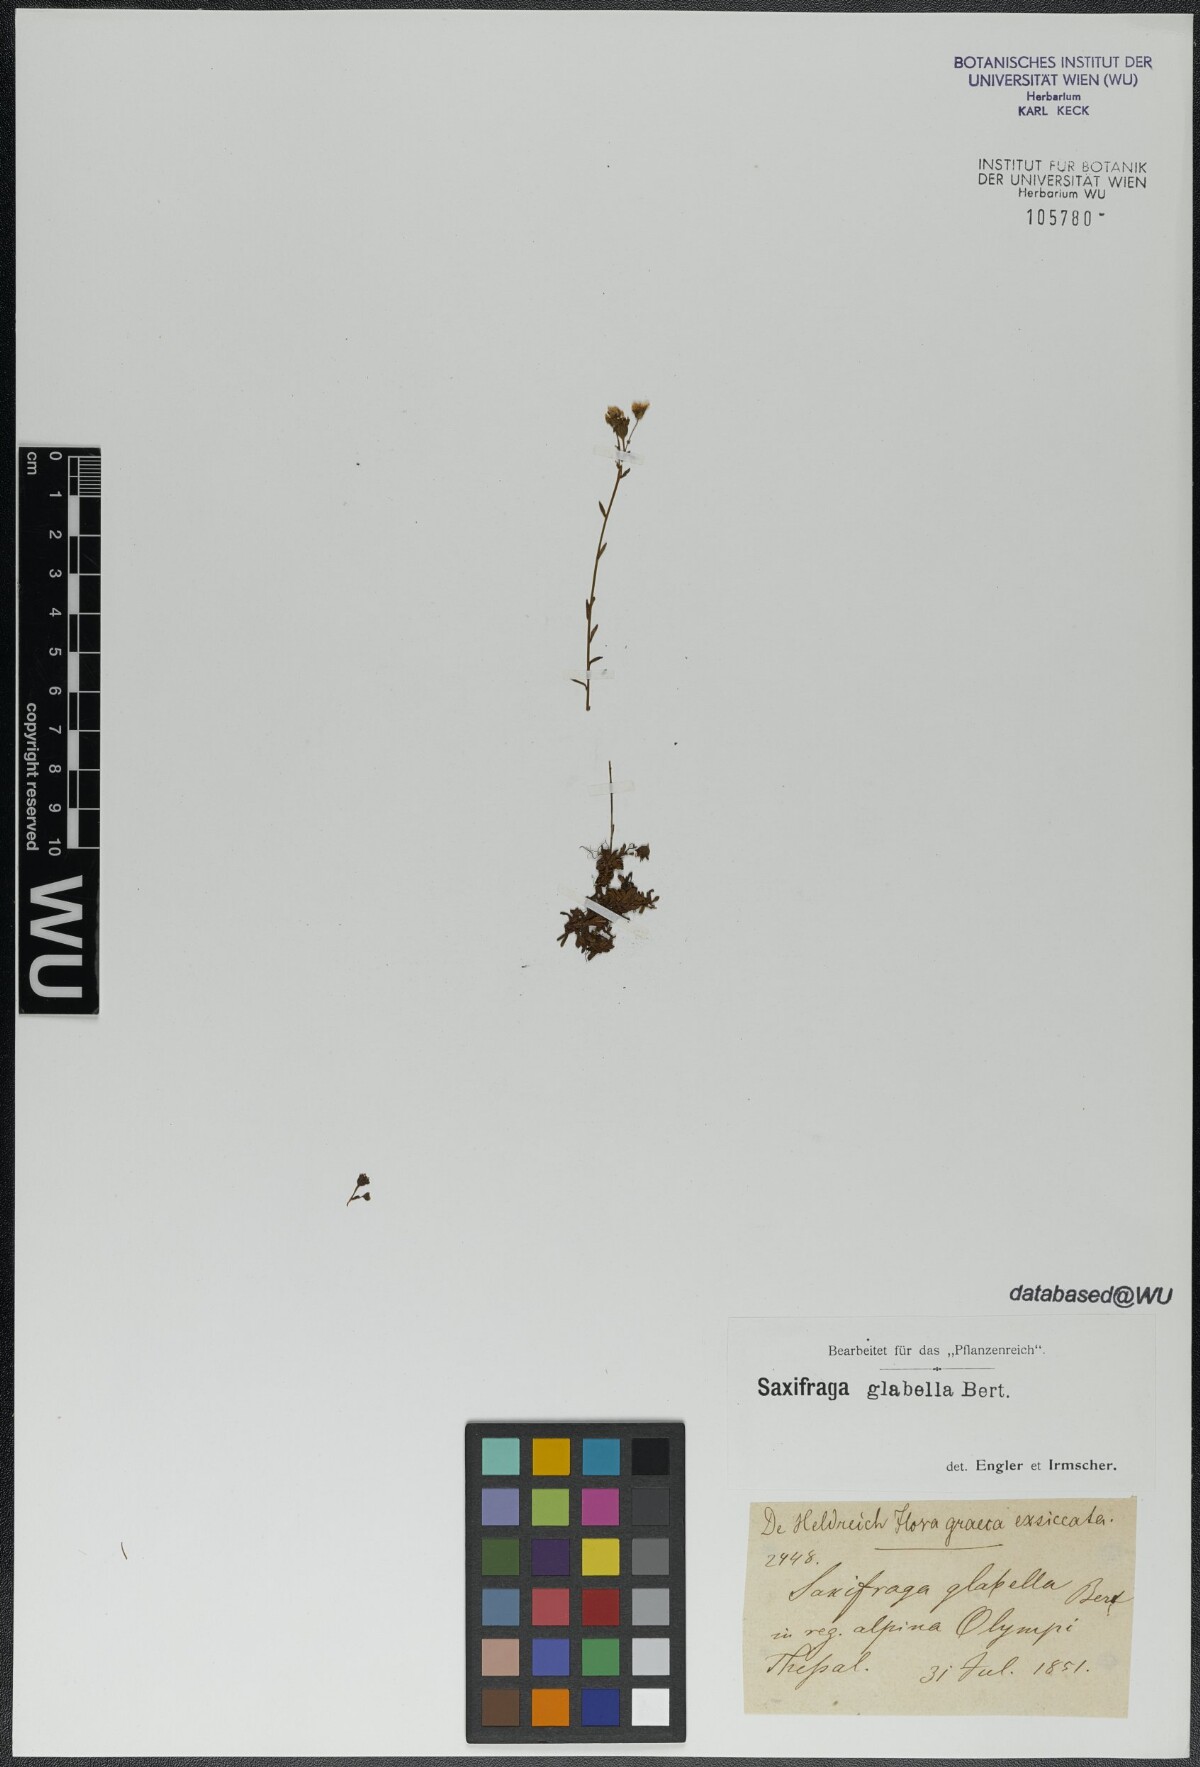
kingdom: Plantae
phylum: Tracheophyta
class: Magnoliopsida
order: Saxifragales
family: Saxifragaceae
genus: Saxifraga
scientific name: Saxifraga glabella
